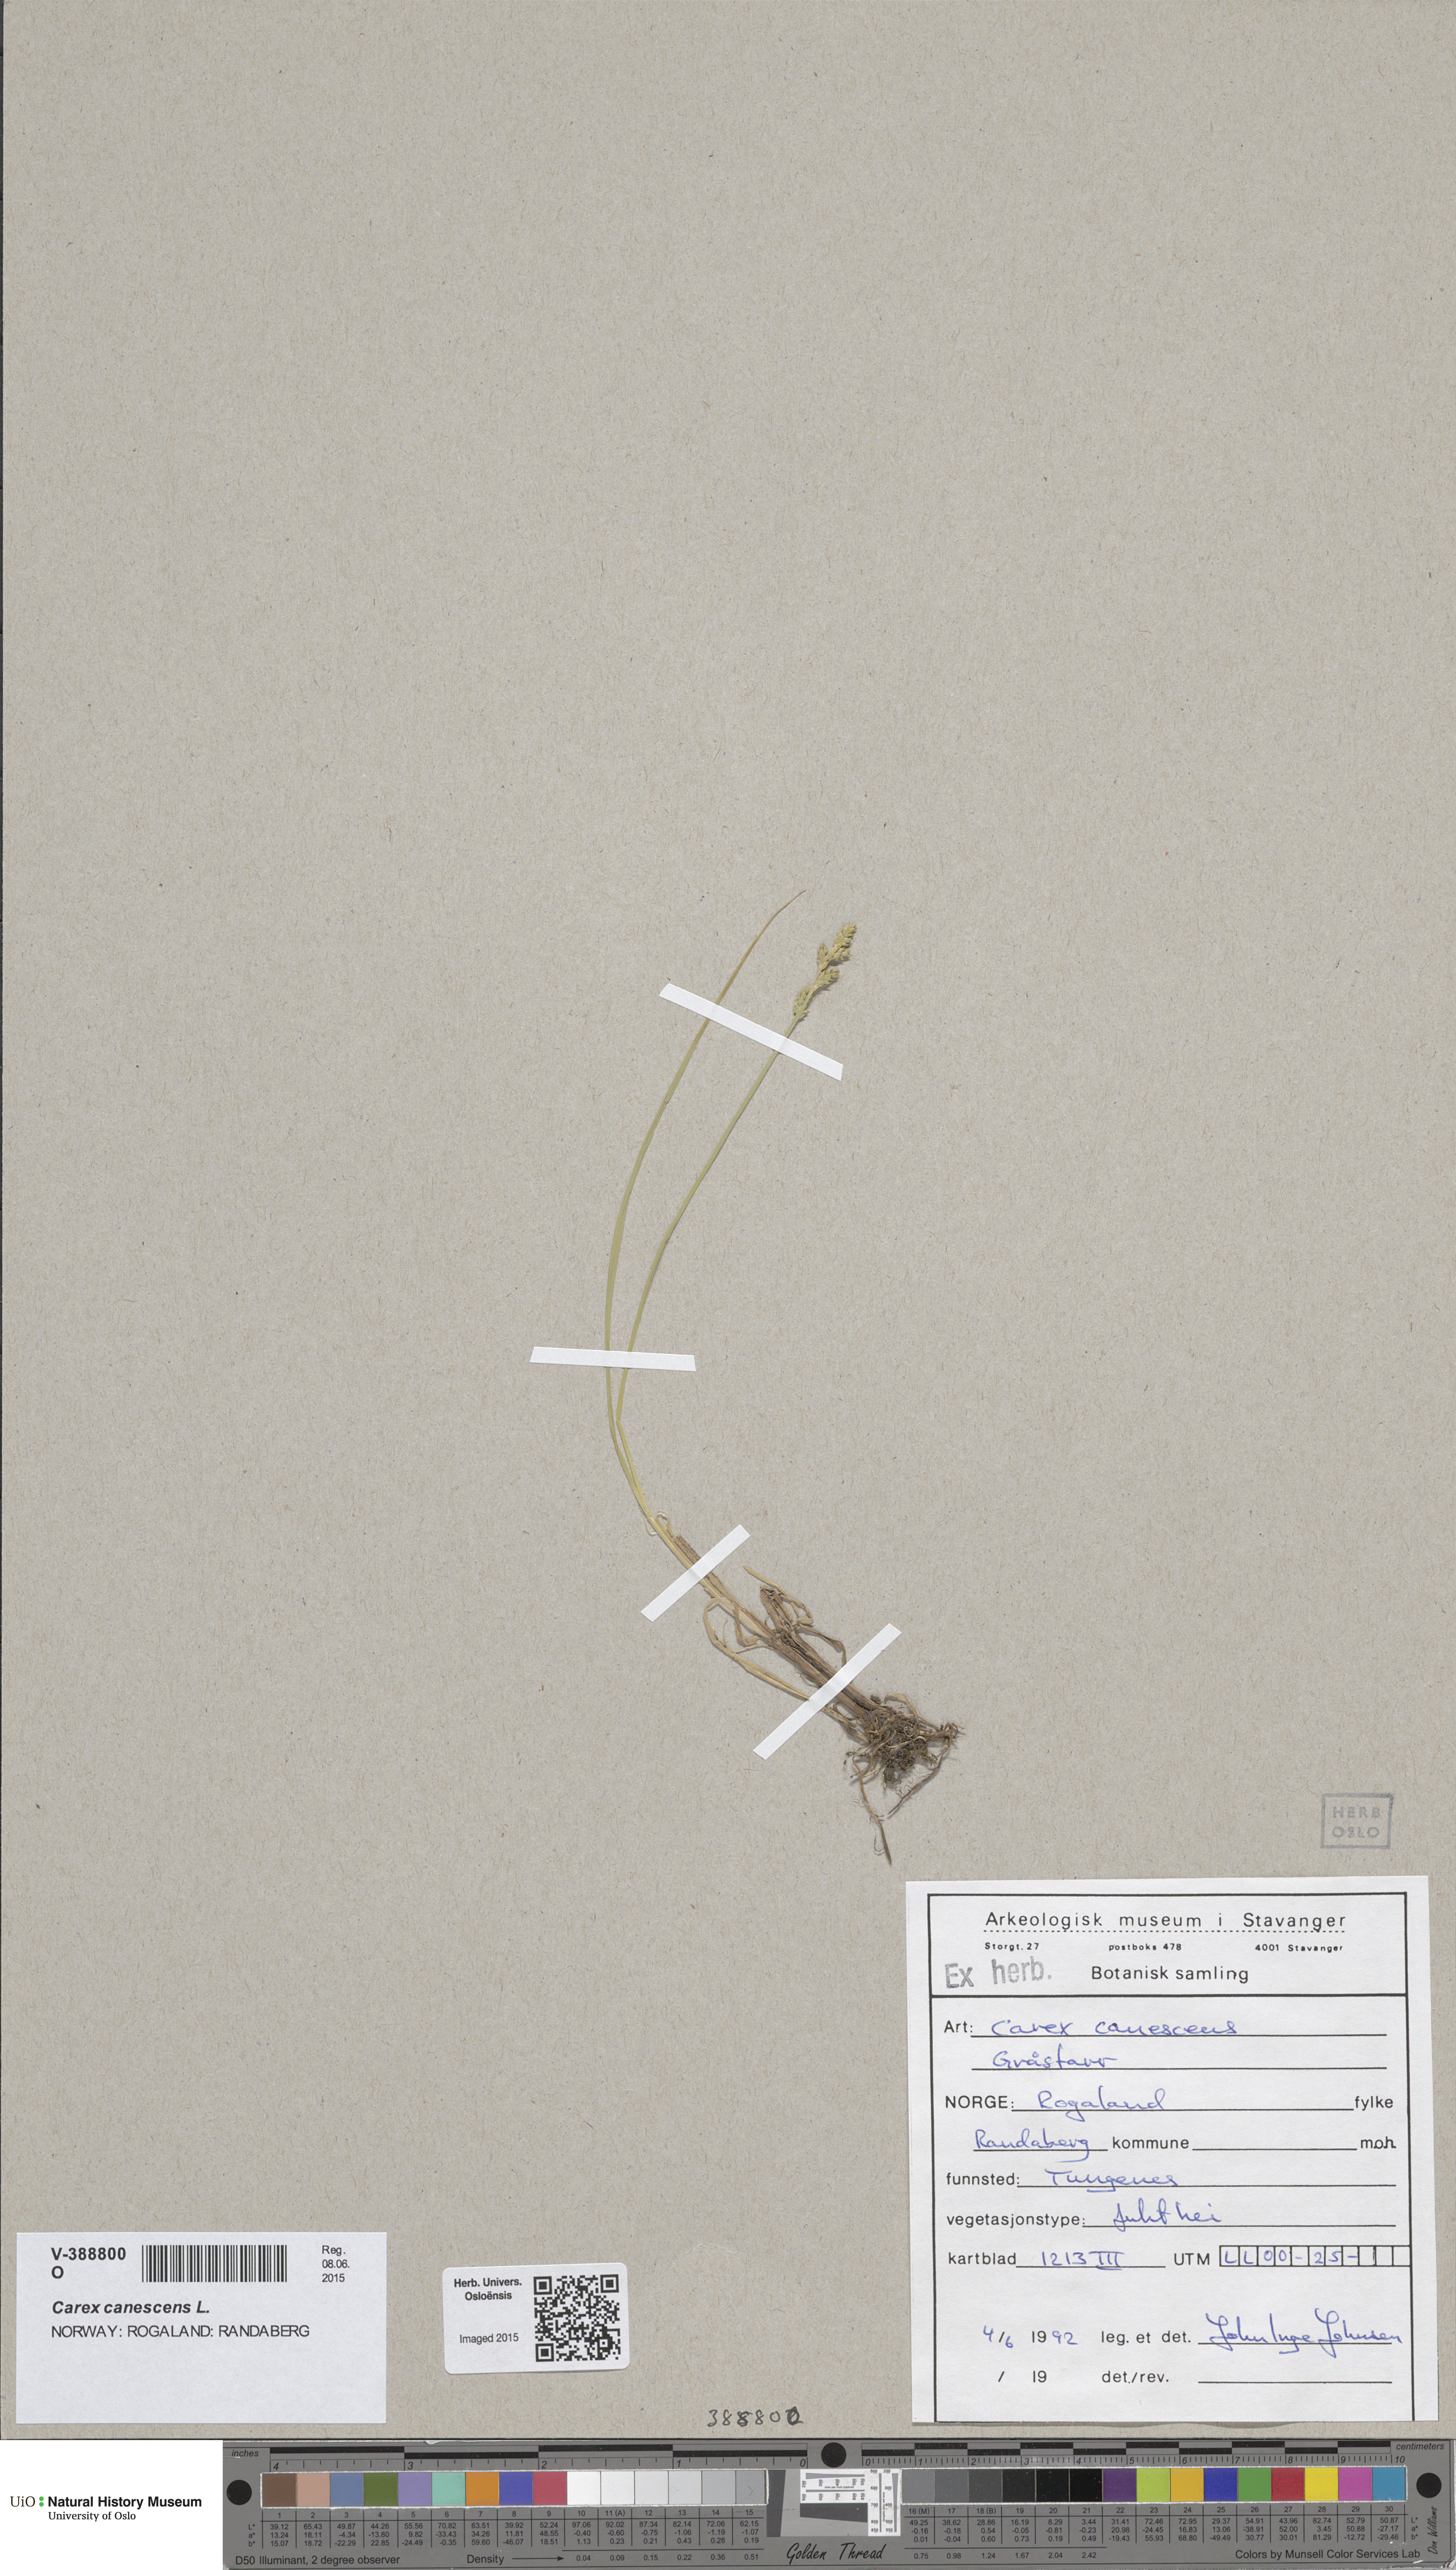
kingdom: Plantae
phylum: Tracheophyta
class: Liliopsida
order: Poales
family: Cyperaceae
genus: Carex
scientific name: Carex canescens
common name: White sedge
